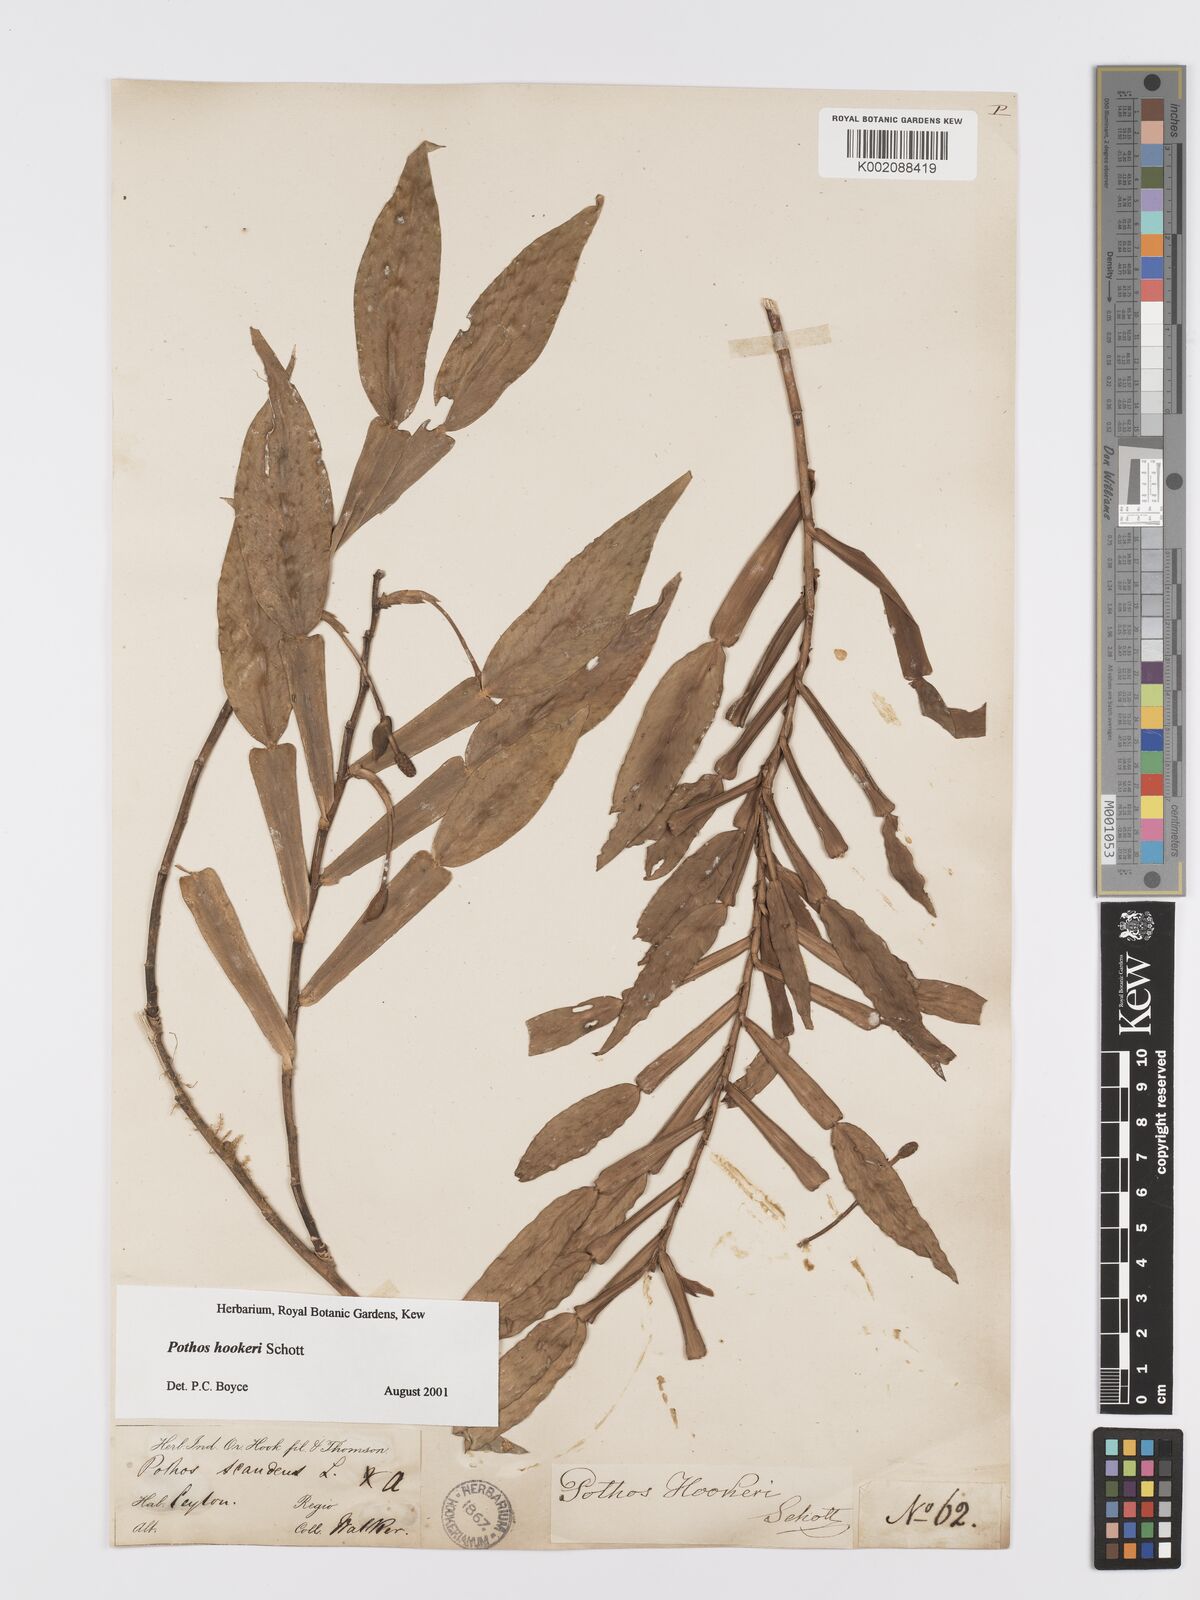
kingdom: Plantae
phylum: Tracheophyta
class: Liliopsida
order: Alismatales
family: Araceae
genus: Pothos
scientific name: Pothos hookeri
